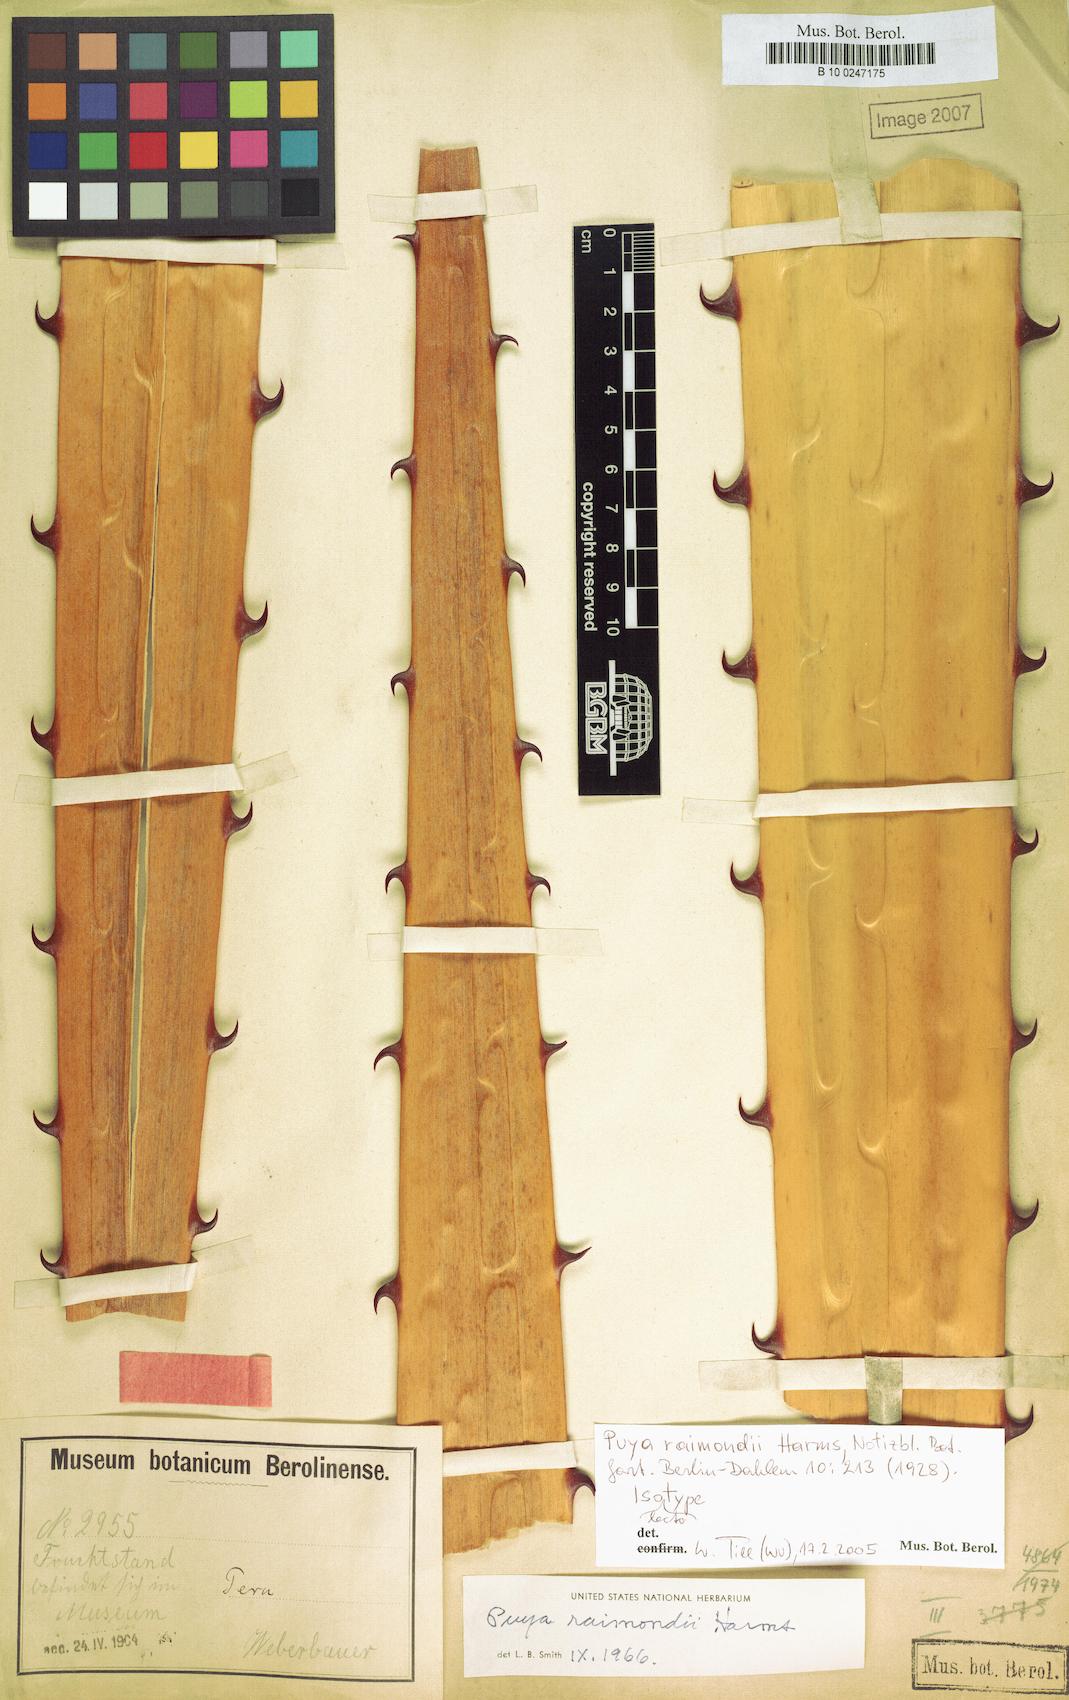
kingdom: Plantae
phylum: Tracheophyta
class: Liliopsida
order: Poales
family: Bromeliaceae
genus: Puya
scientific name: Puya raimondii
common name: Queen of the andes
